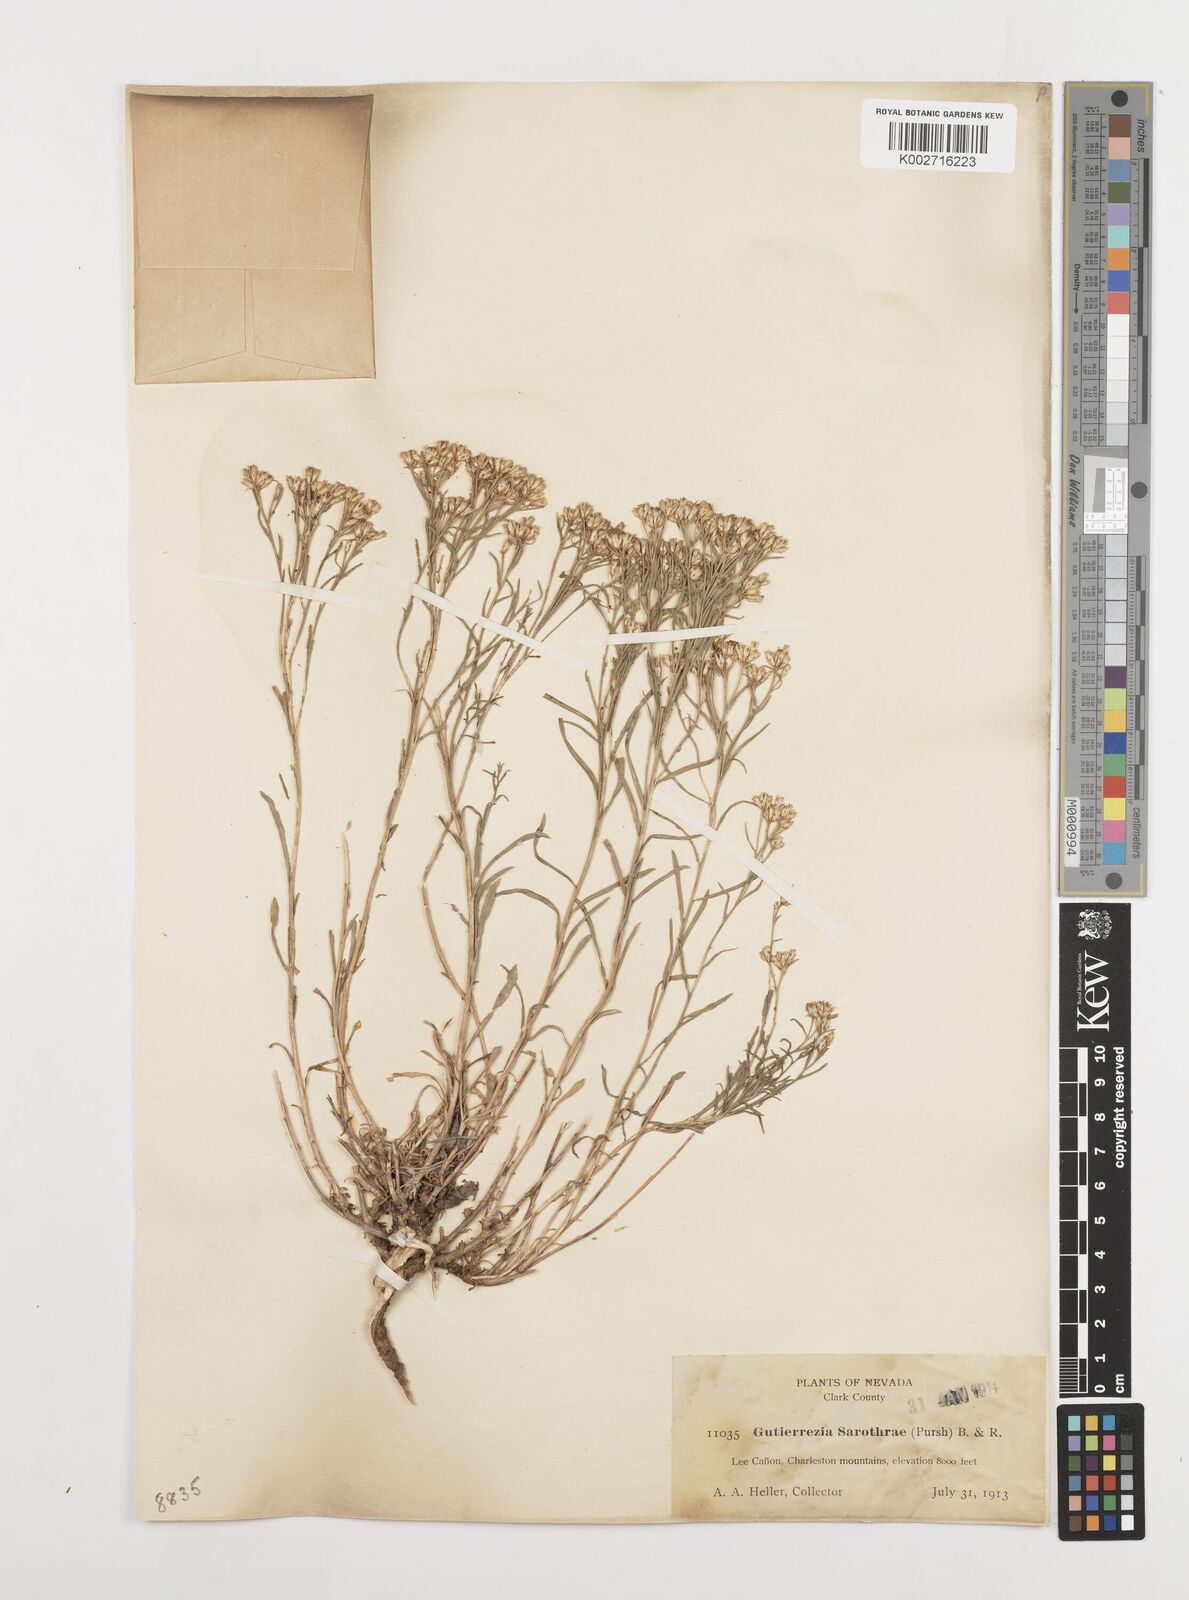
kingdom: Plantae
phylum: Tracheophyta
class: Magnoliopsida
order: Asterales
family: Asteraceae
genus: Gutierrezia
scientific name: Gutierrezia sarothrae
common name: Broom snakeweed
